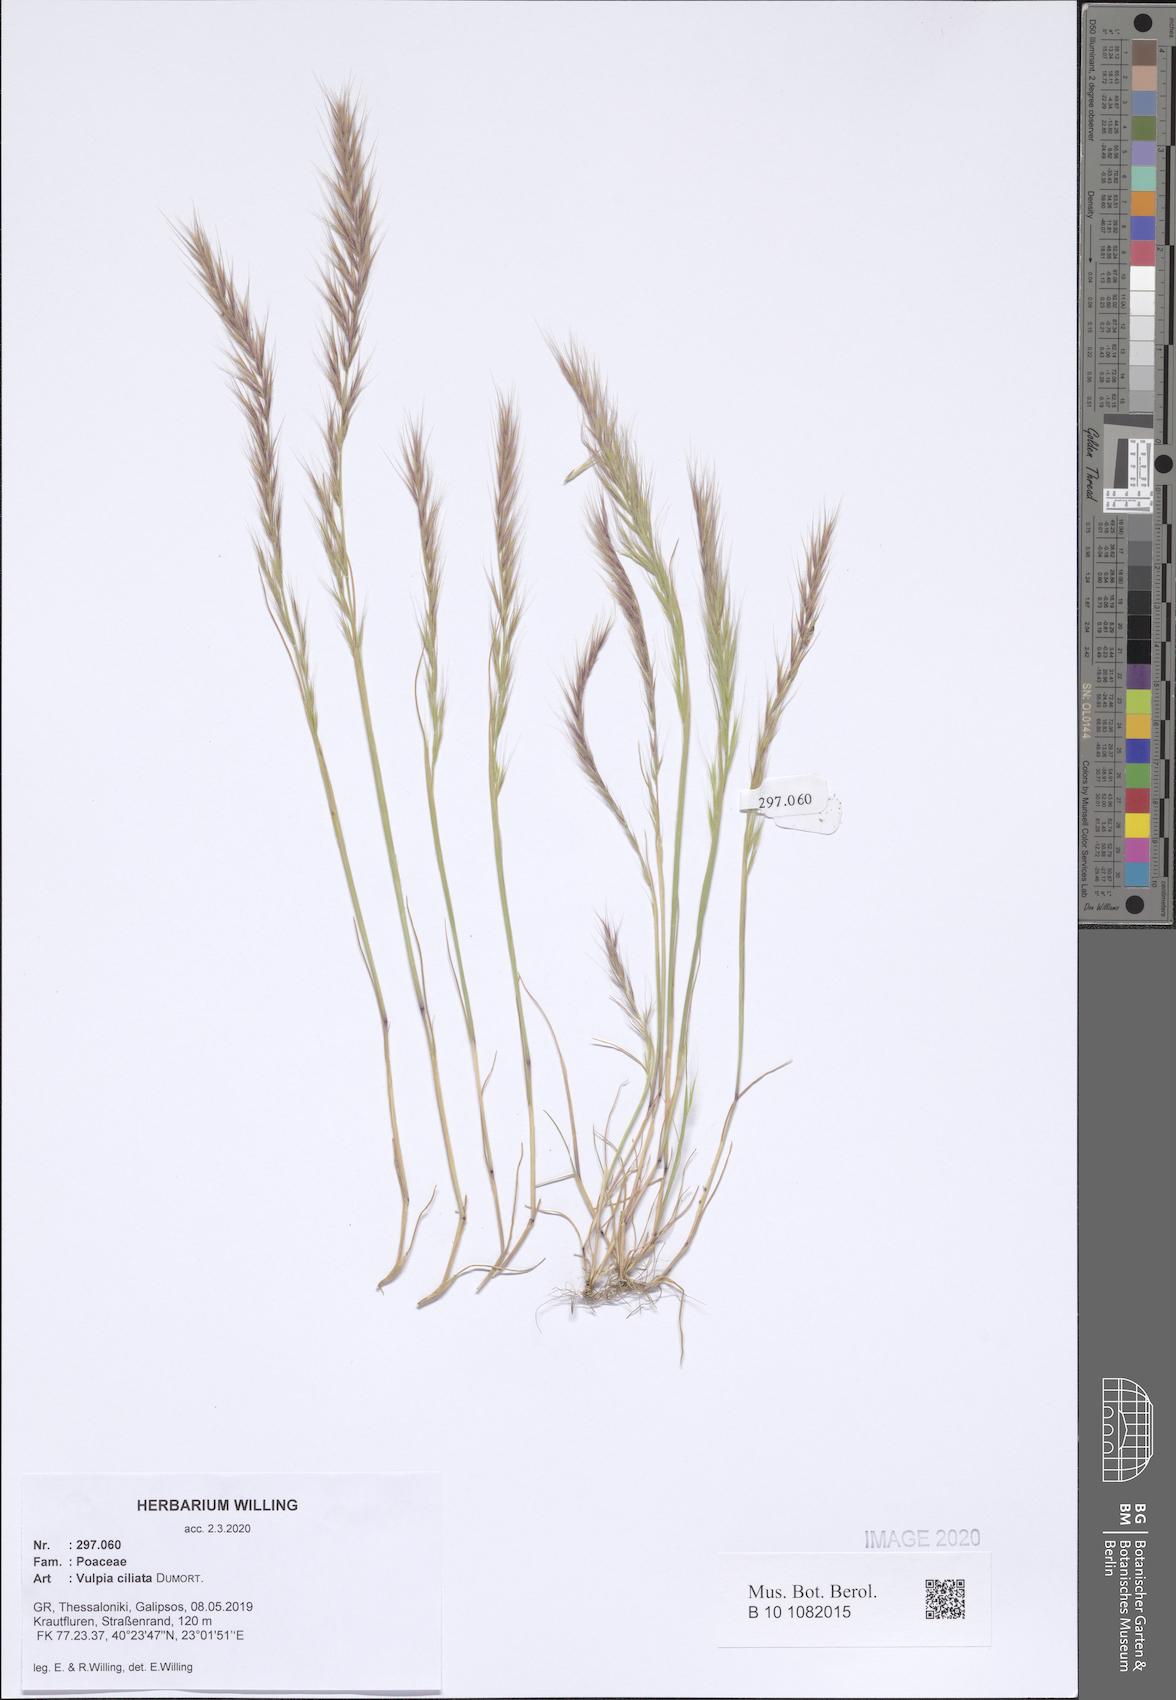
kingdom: Plantae
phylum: Tracheophyta
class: Liliopsida
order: Poales
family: Poaceae
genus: Festuca
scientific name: Festuca ambigua
